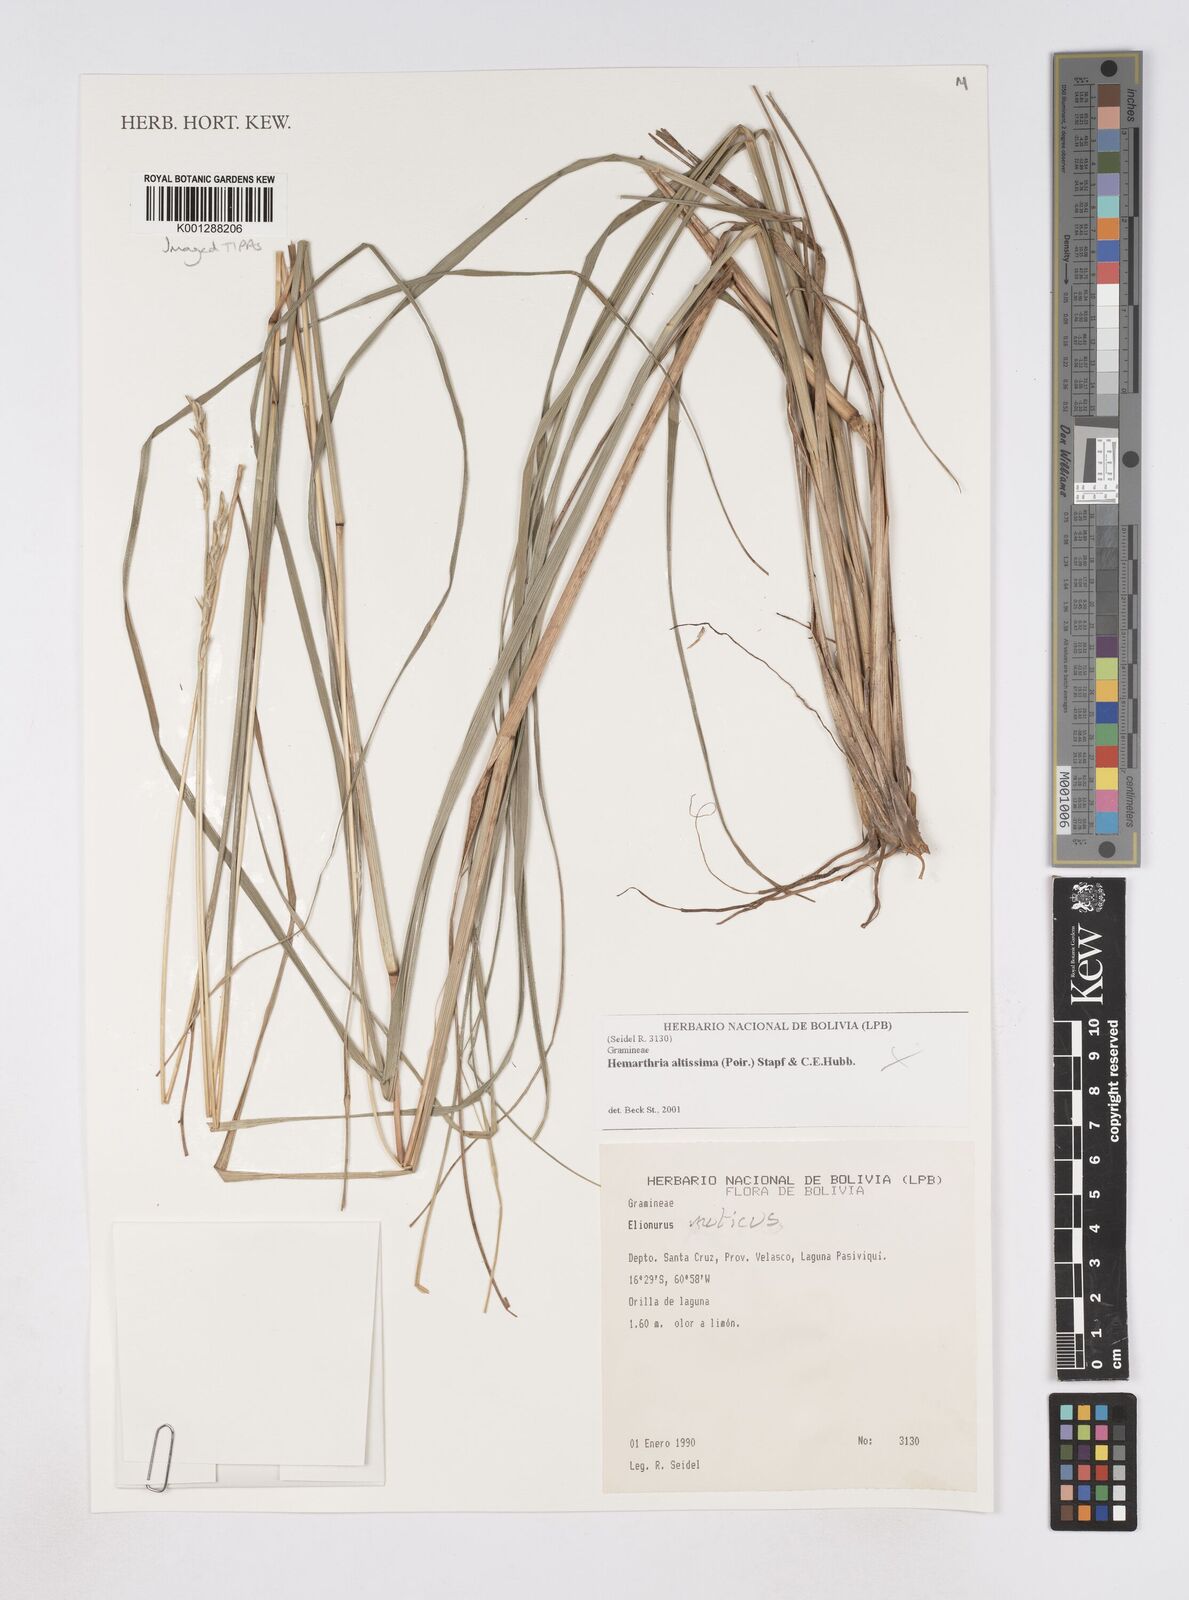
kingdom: Plantae
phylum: Tracheophyta
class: Liliopsida
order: Poales
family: Poaceae
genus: Elionurus
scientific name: Elionurus muticus
